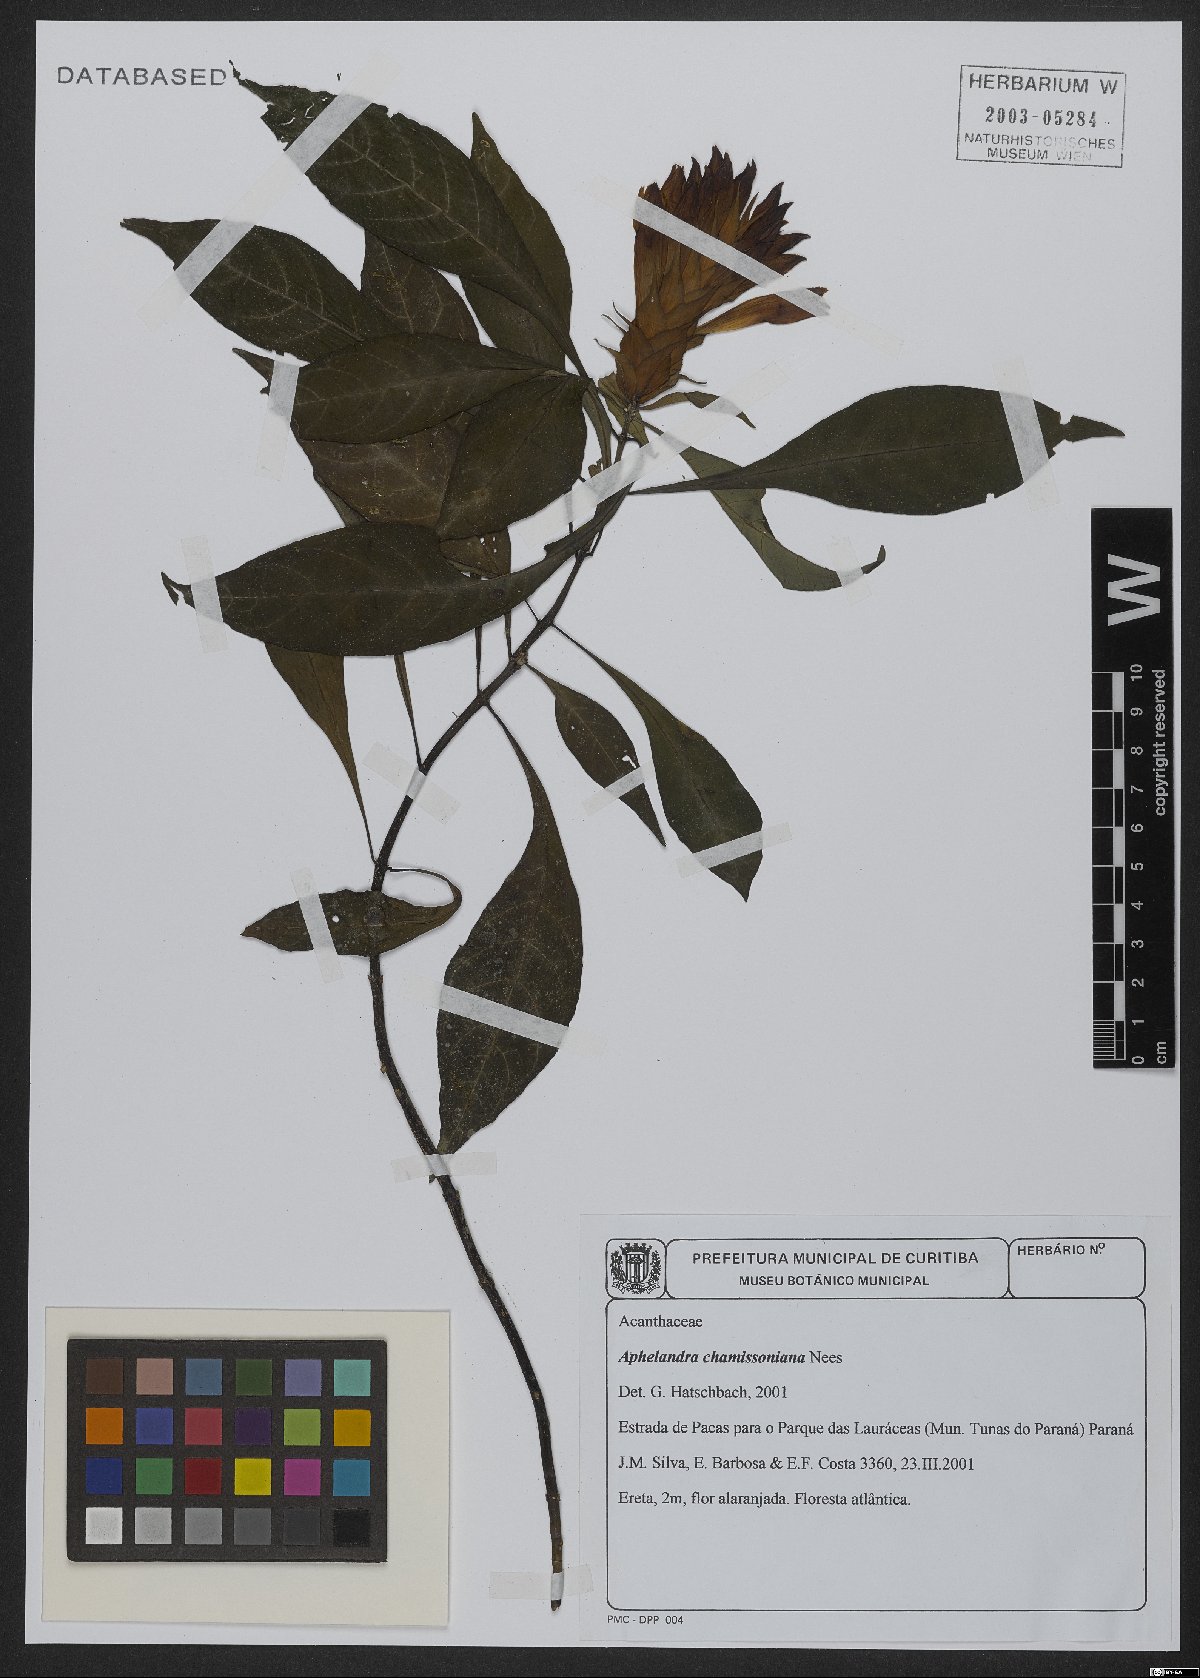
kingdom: Plantae
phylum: Tracheophyta
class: Magnoliopsida
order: Lamiales
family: Acanthaceae
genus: Aphelandra
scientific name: Aphelandra chamissoniana
